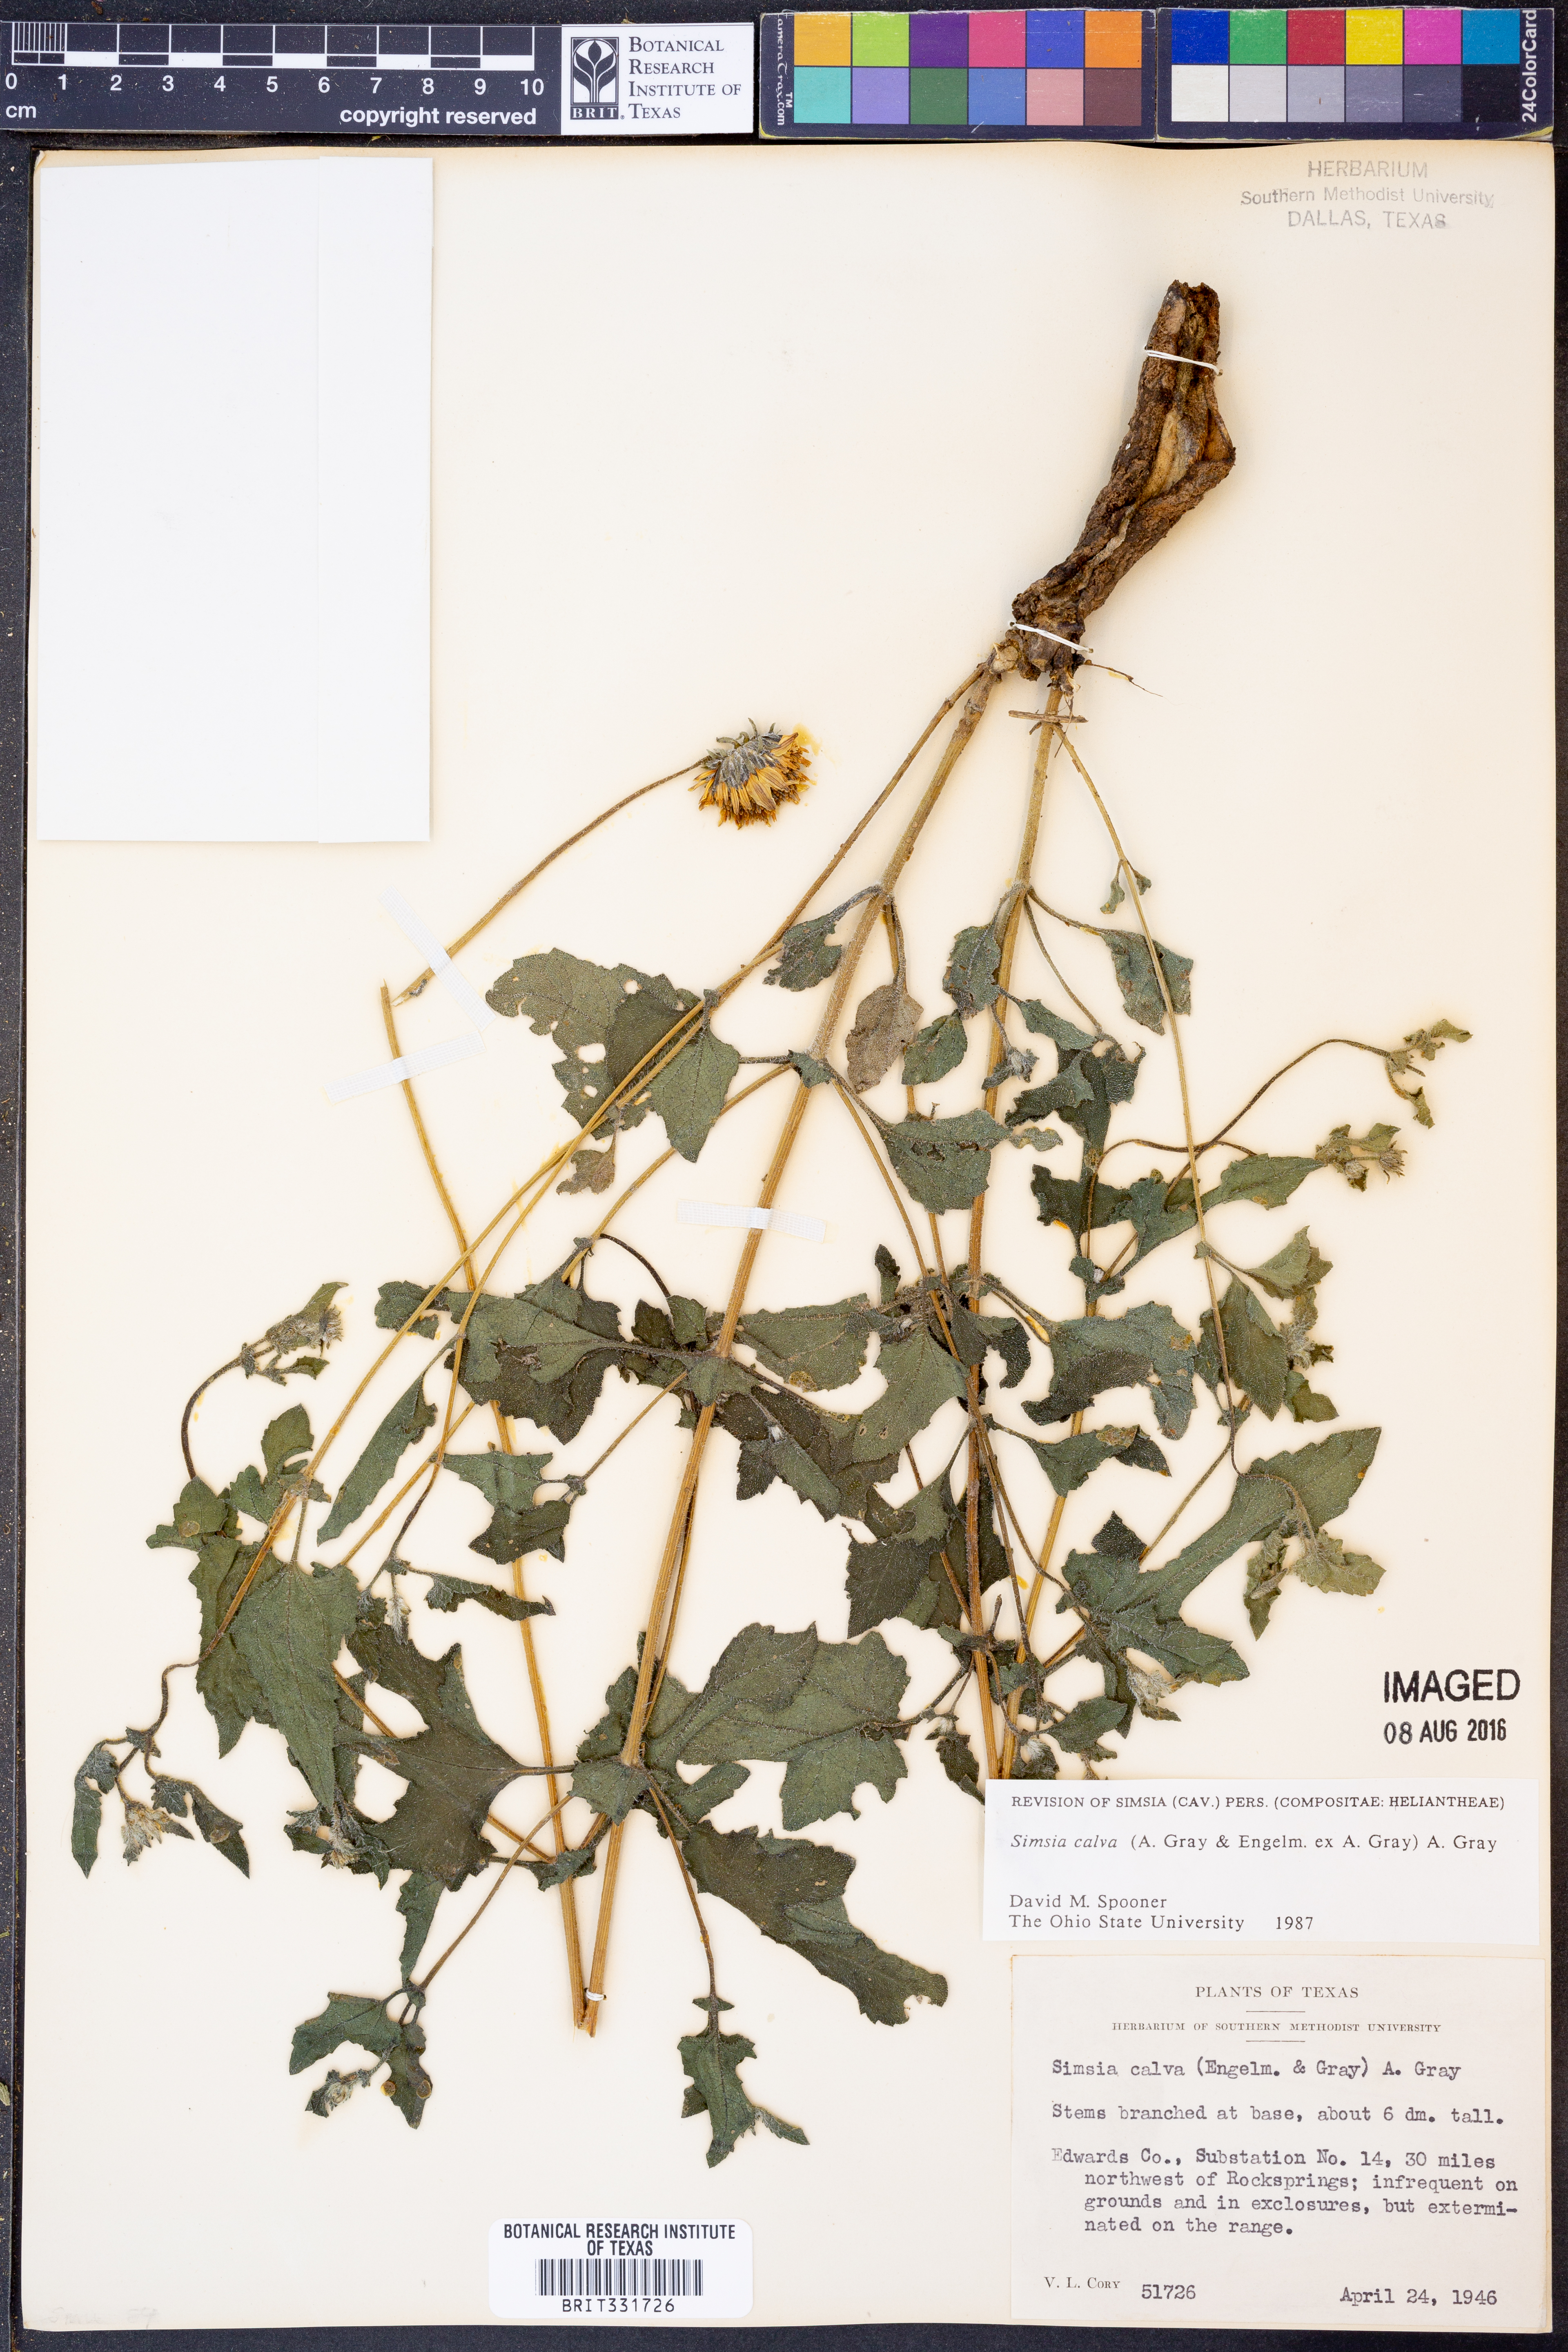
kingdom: Plantae
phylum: Tracheophyta
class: Magnoliopsida
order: Asterales
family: Asteraceae
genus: Simsia
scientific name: Simsia calva
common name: Awnless bush-sunflower
